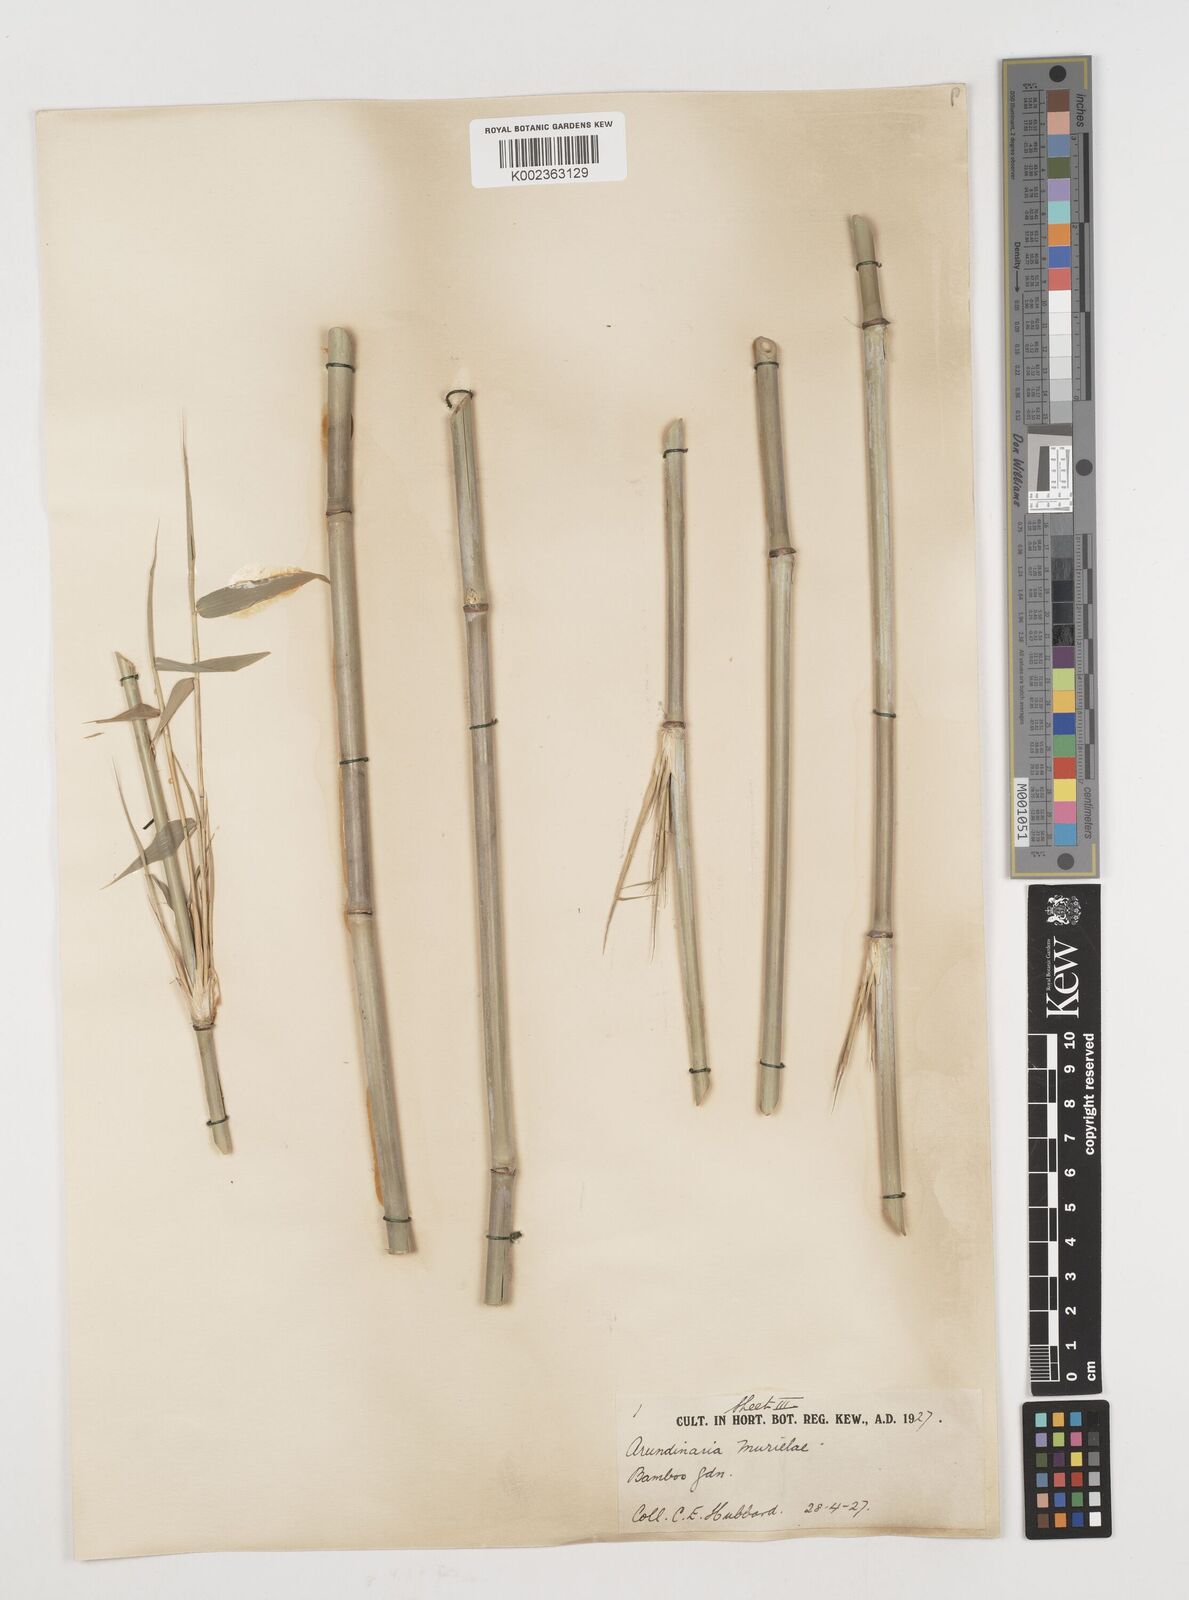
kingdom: Plantae
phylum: Tracheophyta
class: Liliopsida
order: Poales
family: Poaceae
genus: Fargesia
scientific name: Fargesia murielae
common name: Umbrella bamboo
